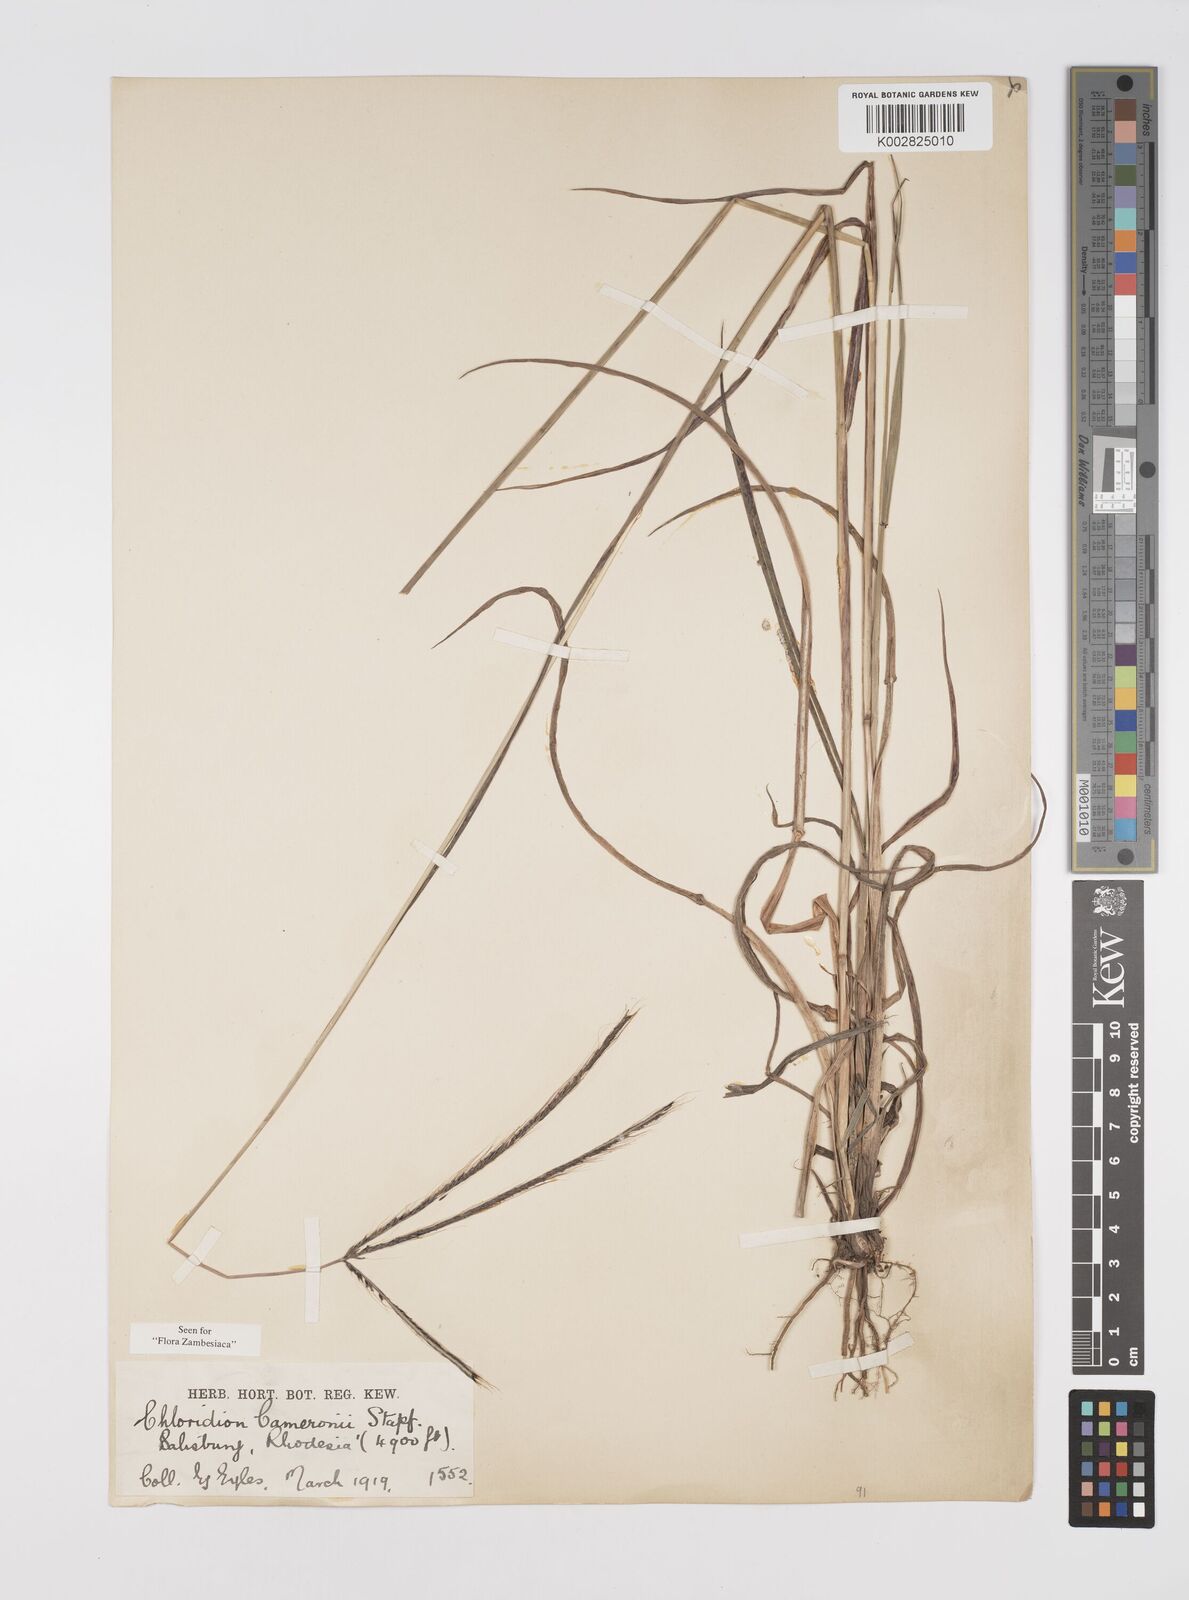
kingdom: Plantae
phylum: Tracheophyta
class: Liliopsida
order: Poales
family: Poaceae
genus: Stereochlaena
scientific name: Stereochlaena cameronii
